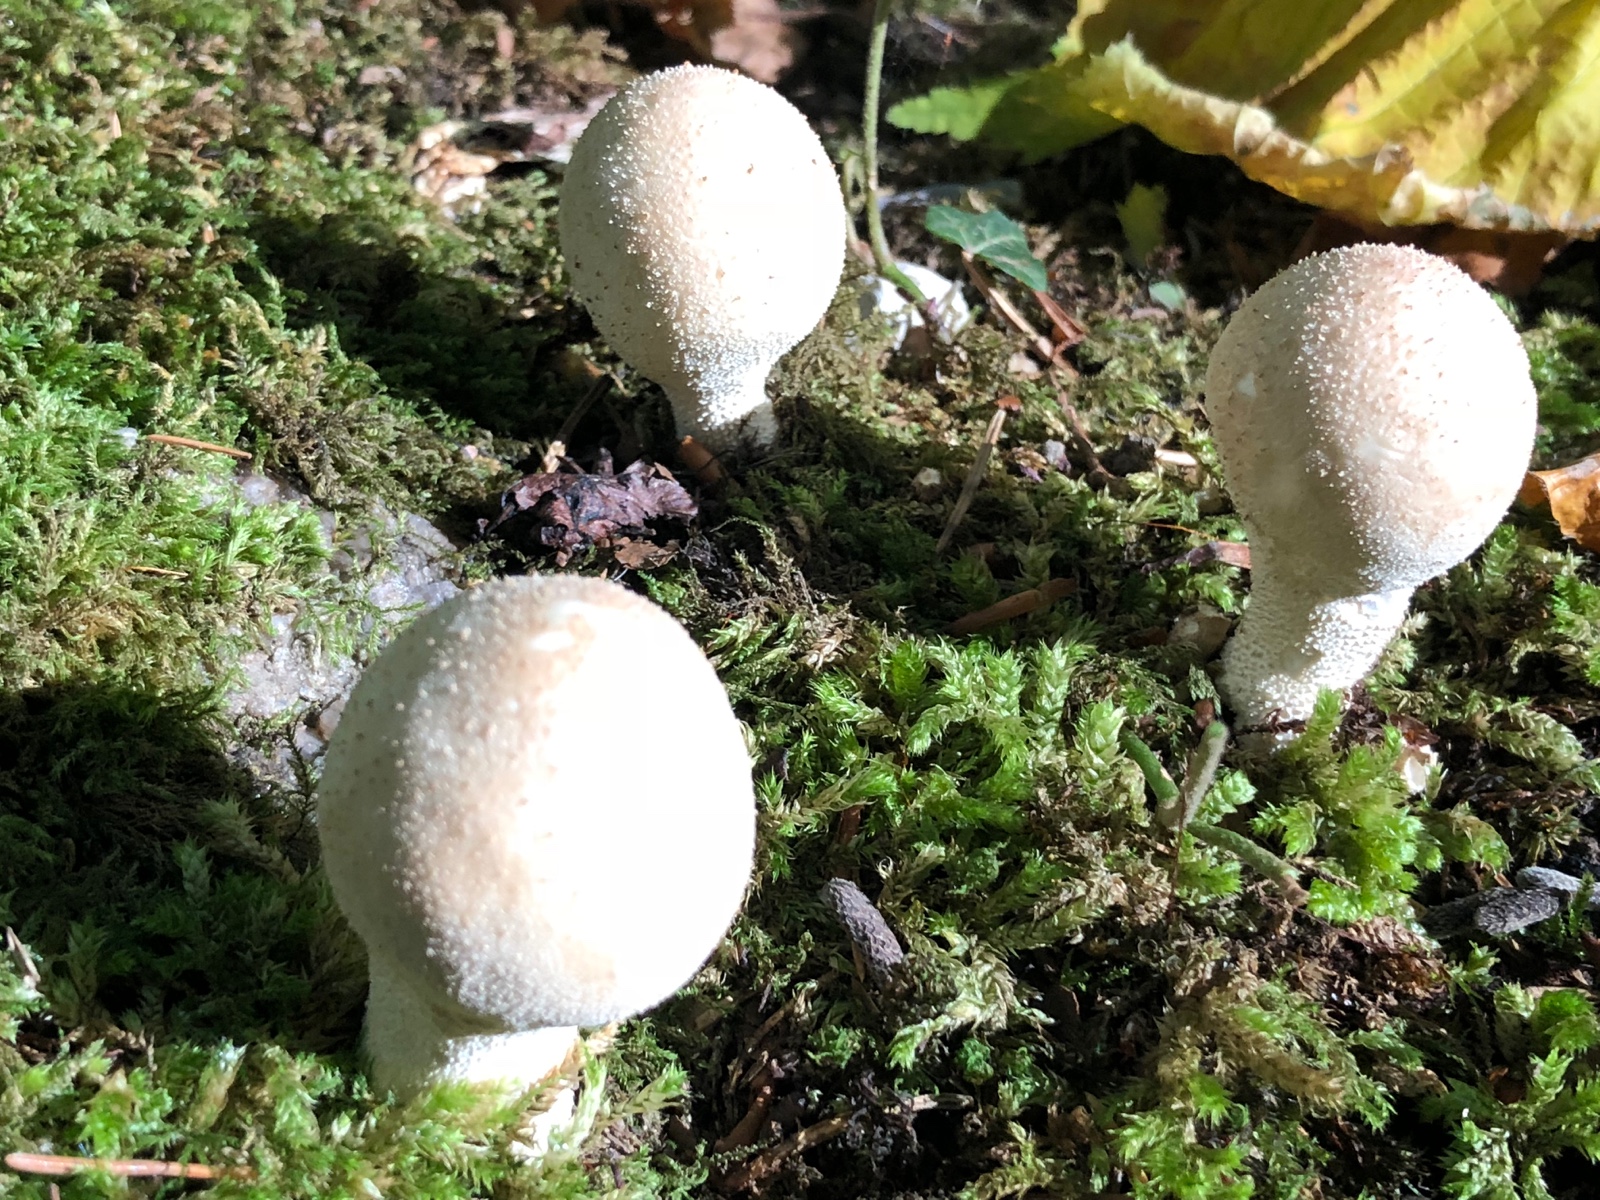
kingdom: Fungi
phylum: Basidiomycota
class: Agaricomycetes
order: Agaricales
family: Lycoperdaceae
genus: Apioperdon
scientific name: Apioperdon pyriforme
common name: pære-støvbold
